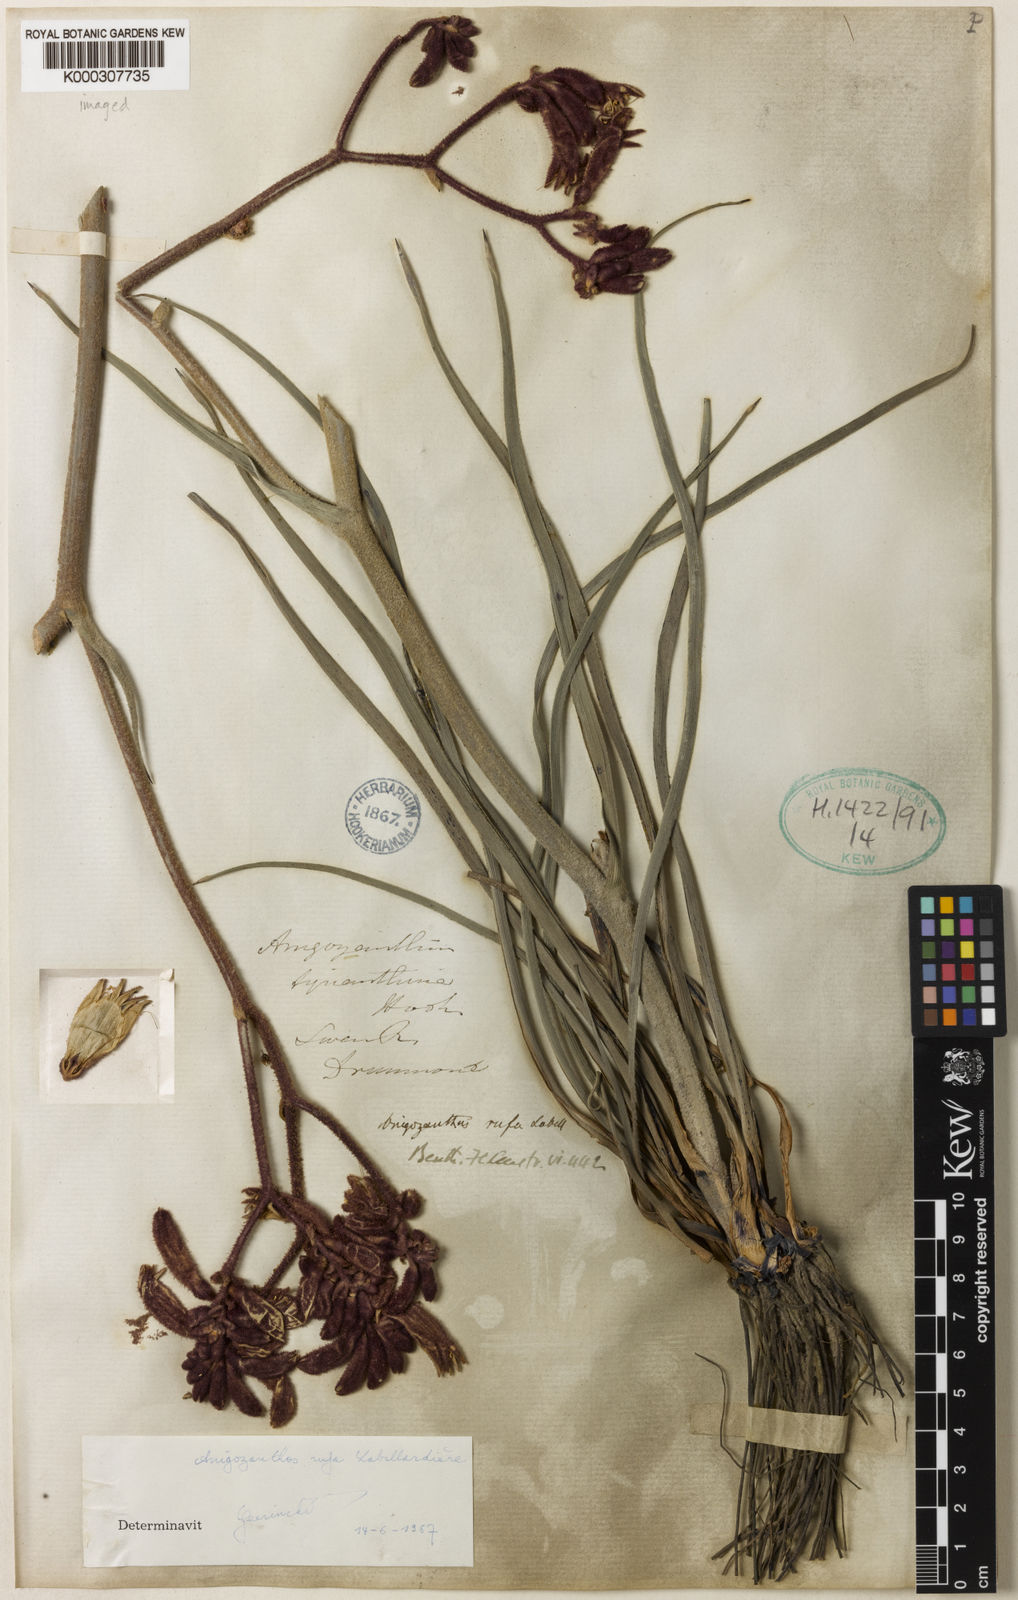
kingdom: Plantae
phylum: Tracheophyta
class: Liliopsida
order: Commelinales
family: Haemodoraceae
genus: Anigozanthos
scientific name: Anigozanthos rufus
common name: Red kangaroo-paw
